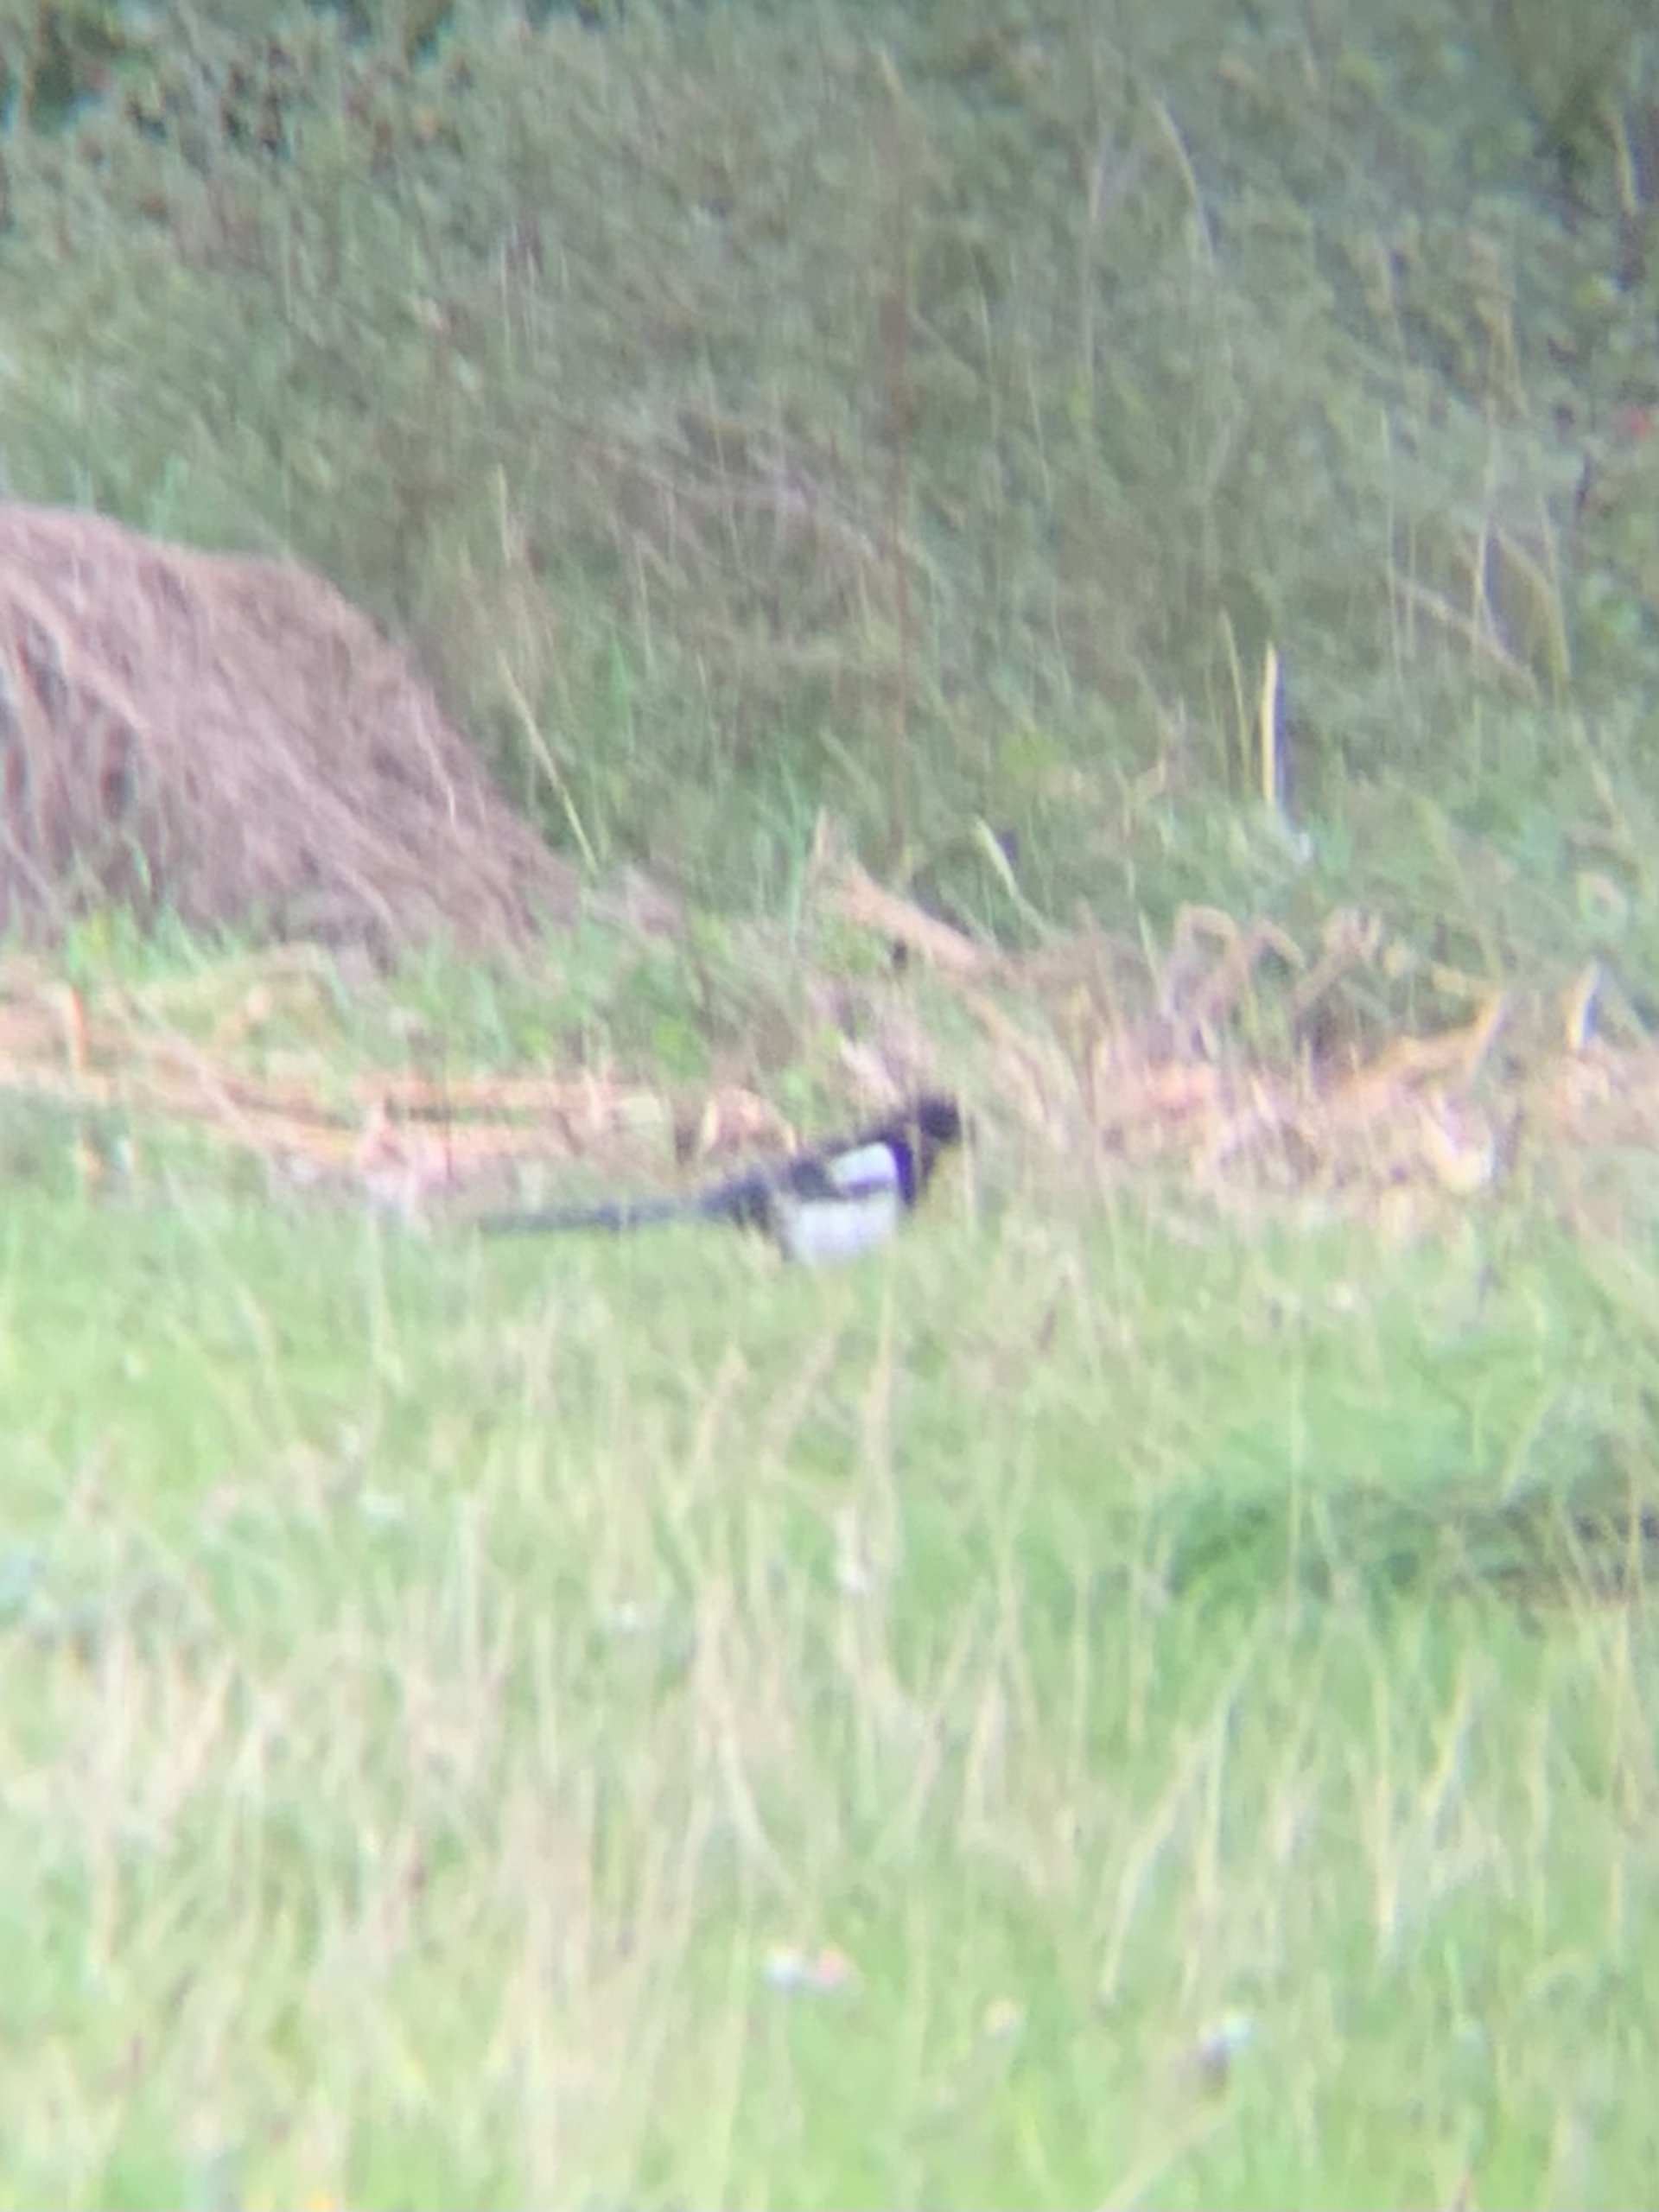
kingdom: Animalia
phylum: Chordata
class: Aves
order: Passeriformes
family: Corvidae
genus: Pica
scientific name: Pica pica
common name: Husskade
